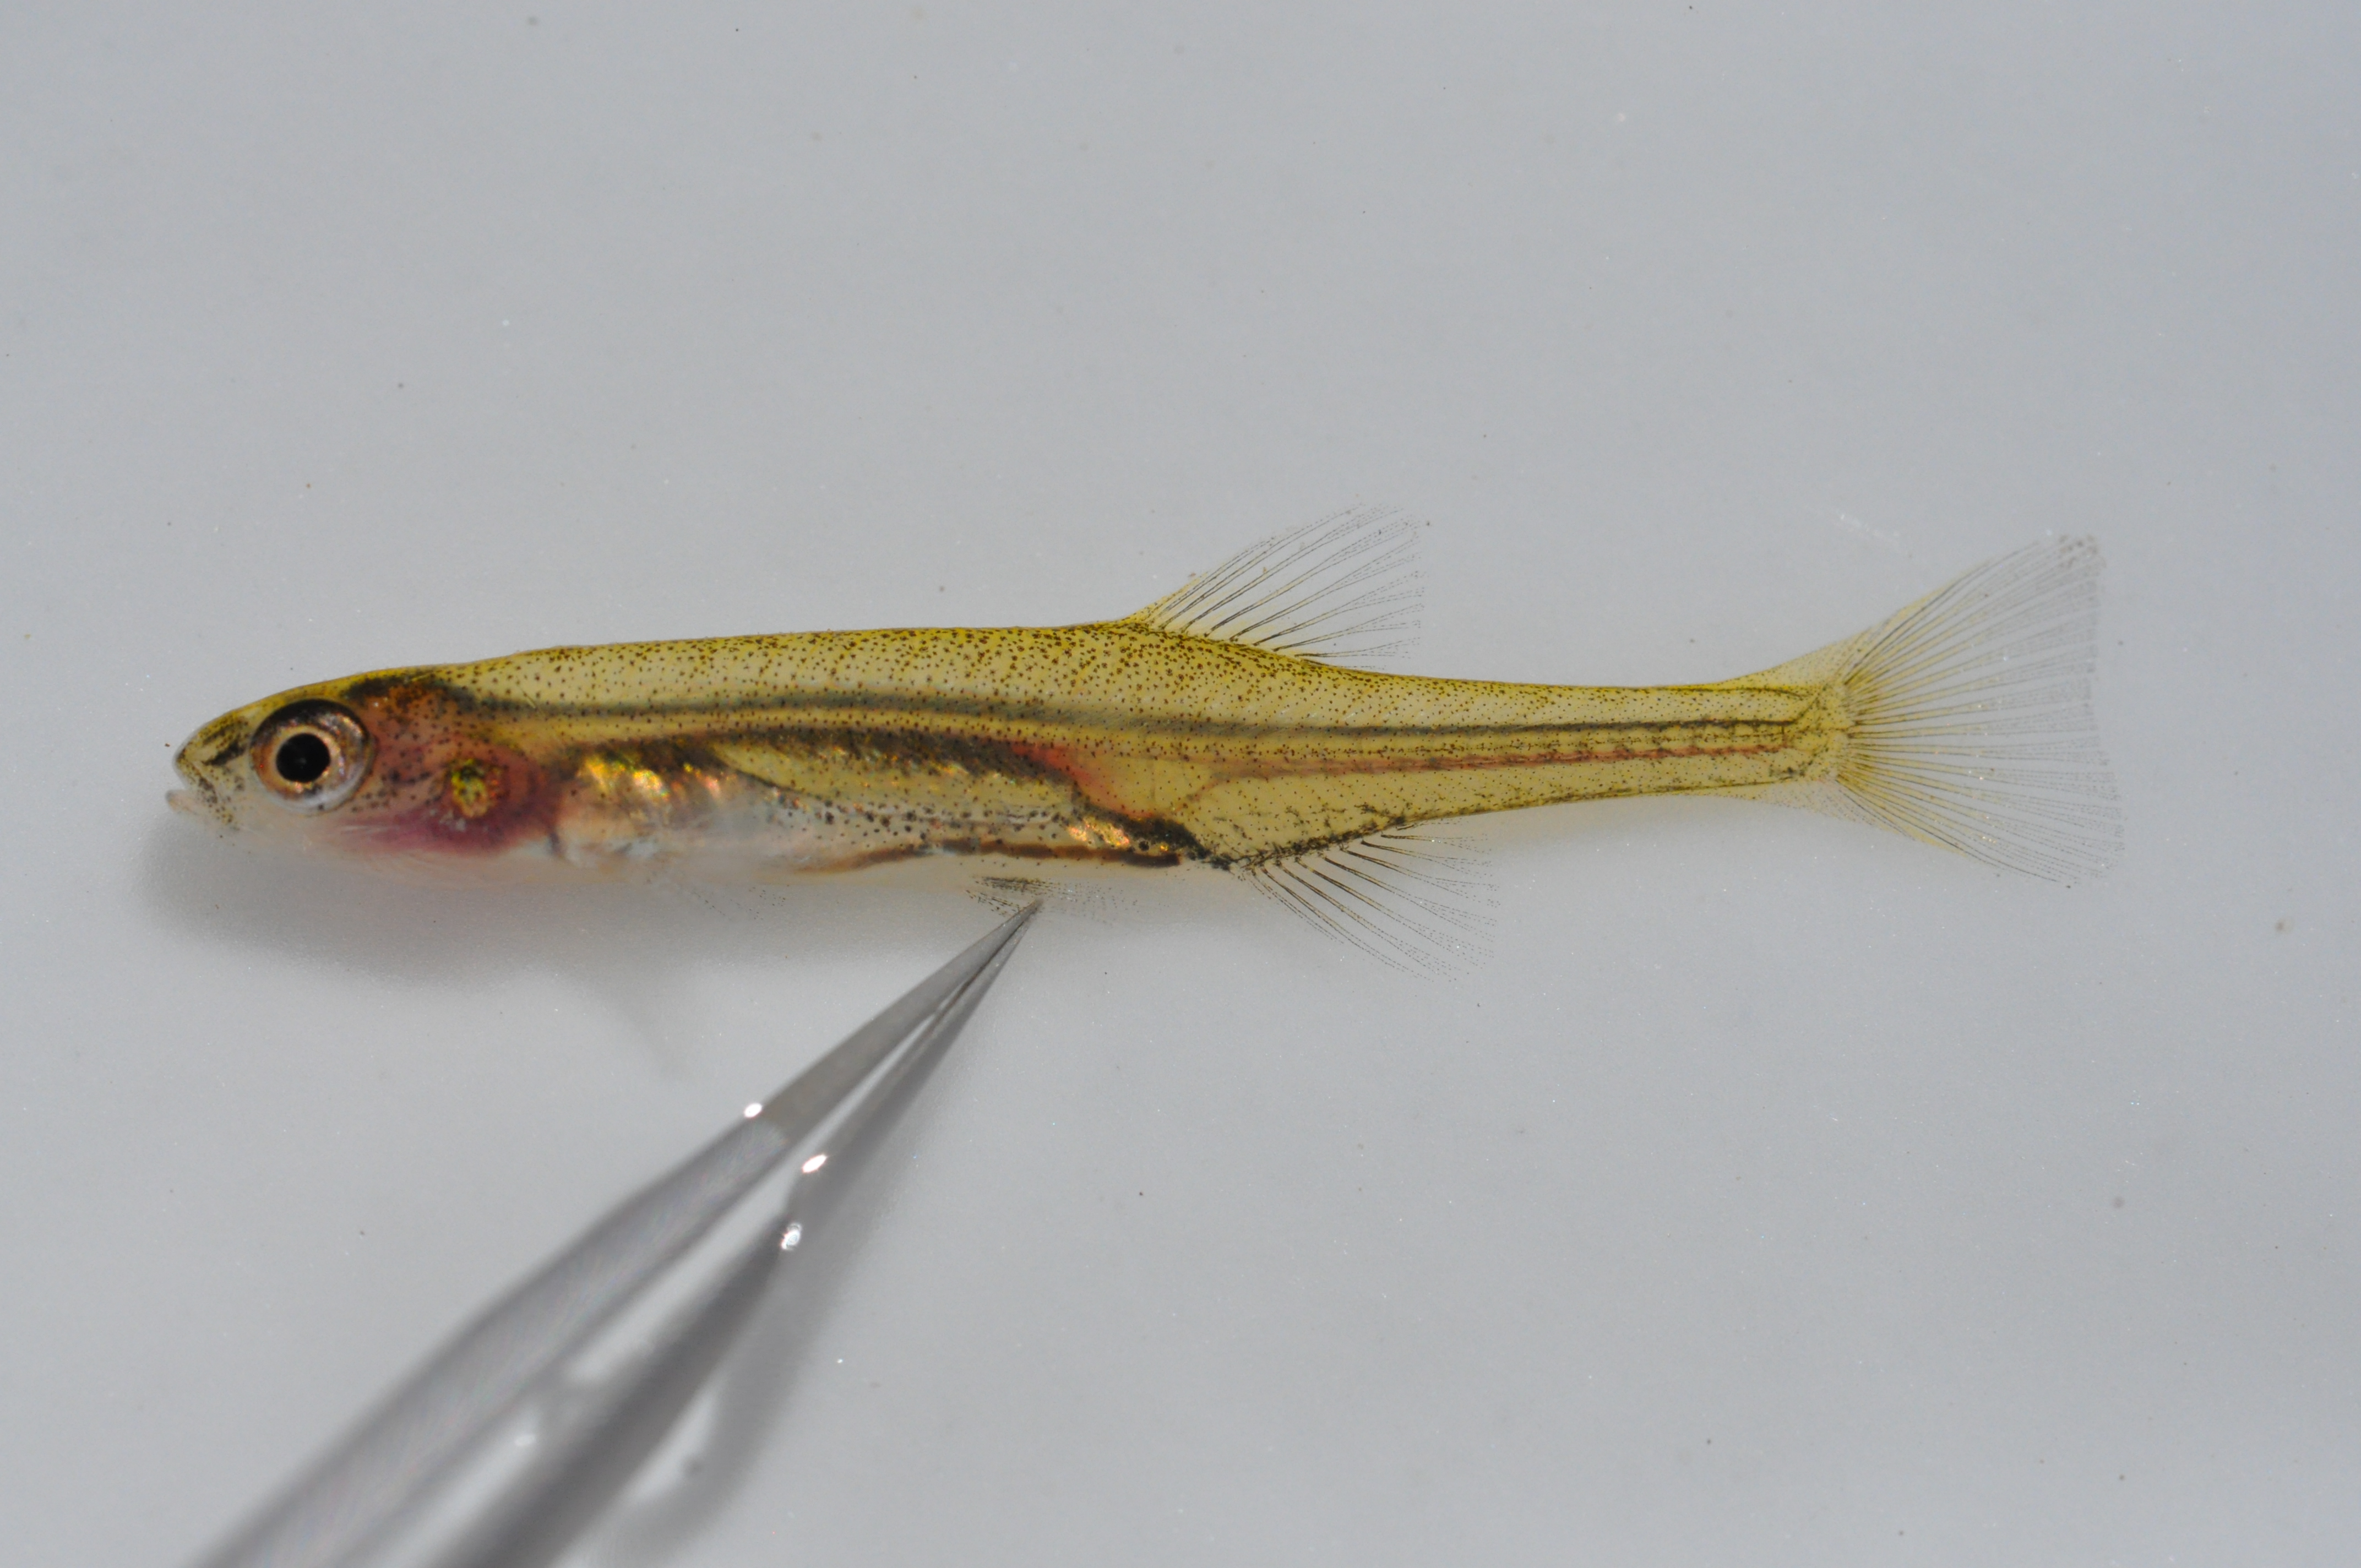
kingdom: Animalia
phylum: Chordata
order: Osmeriformes
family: Galaxiidae
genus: Galaxias
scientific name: Galaxias
